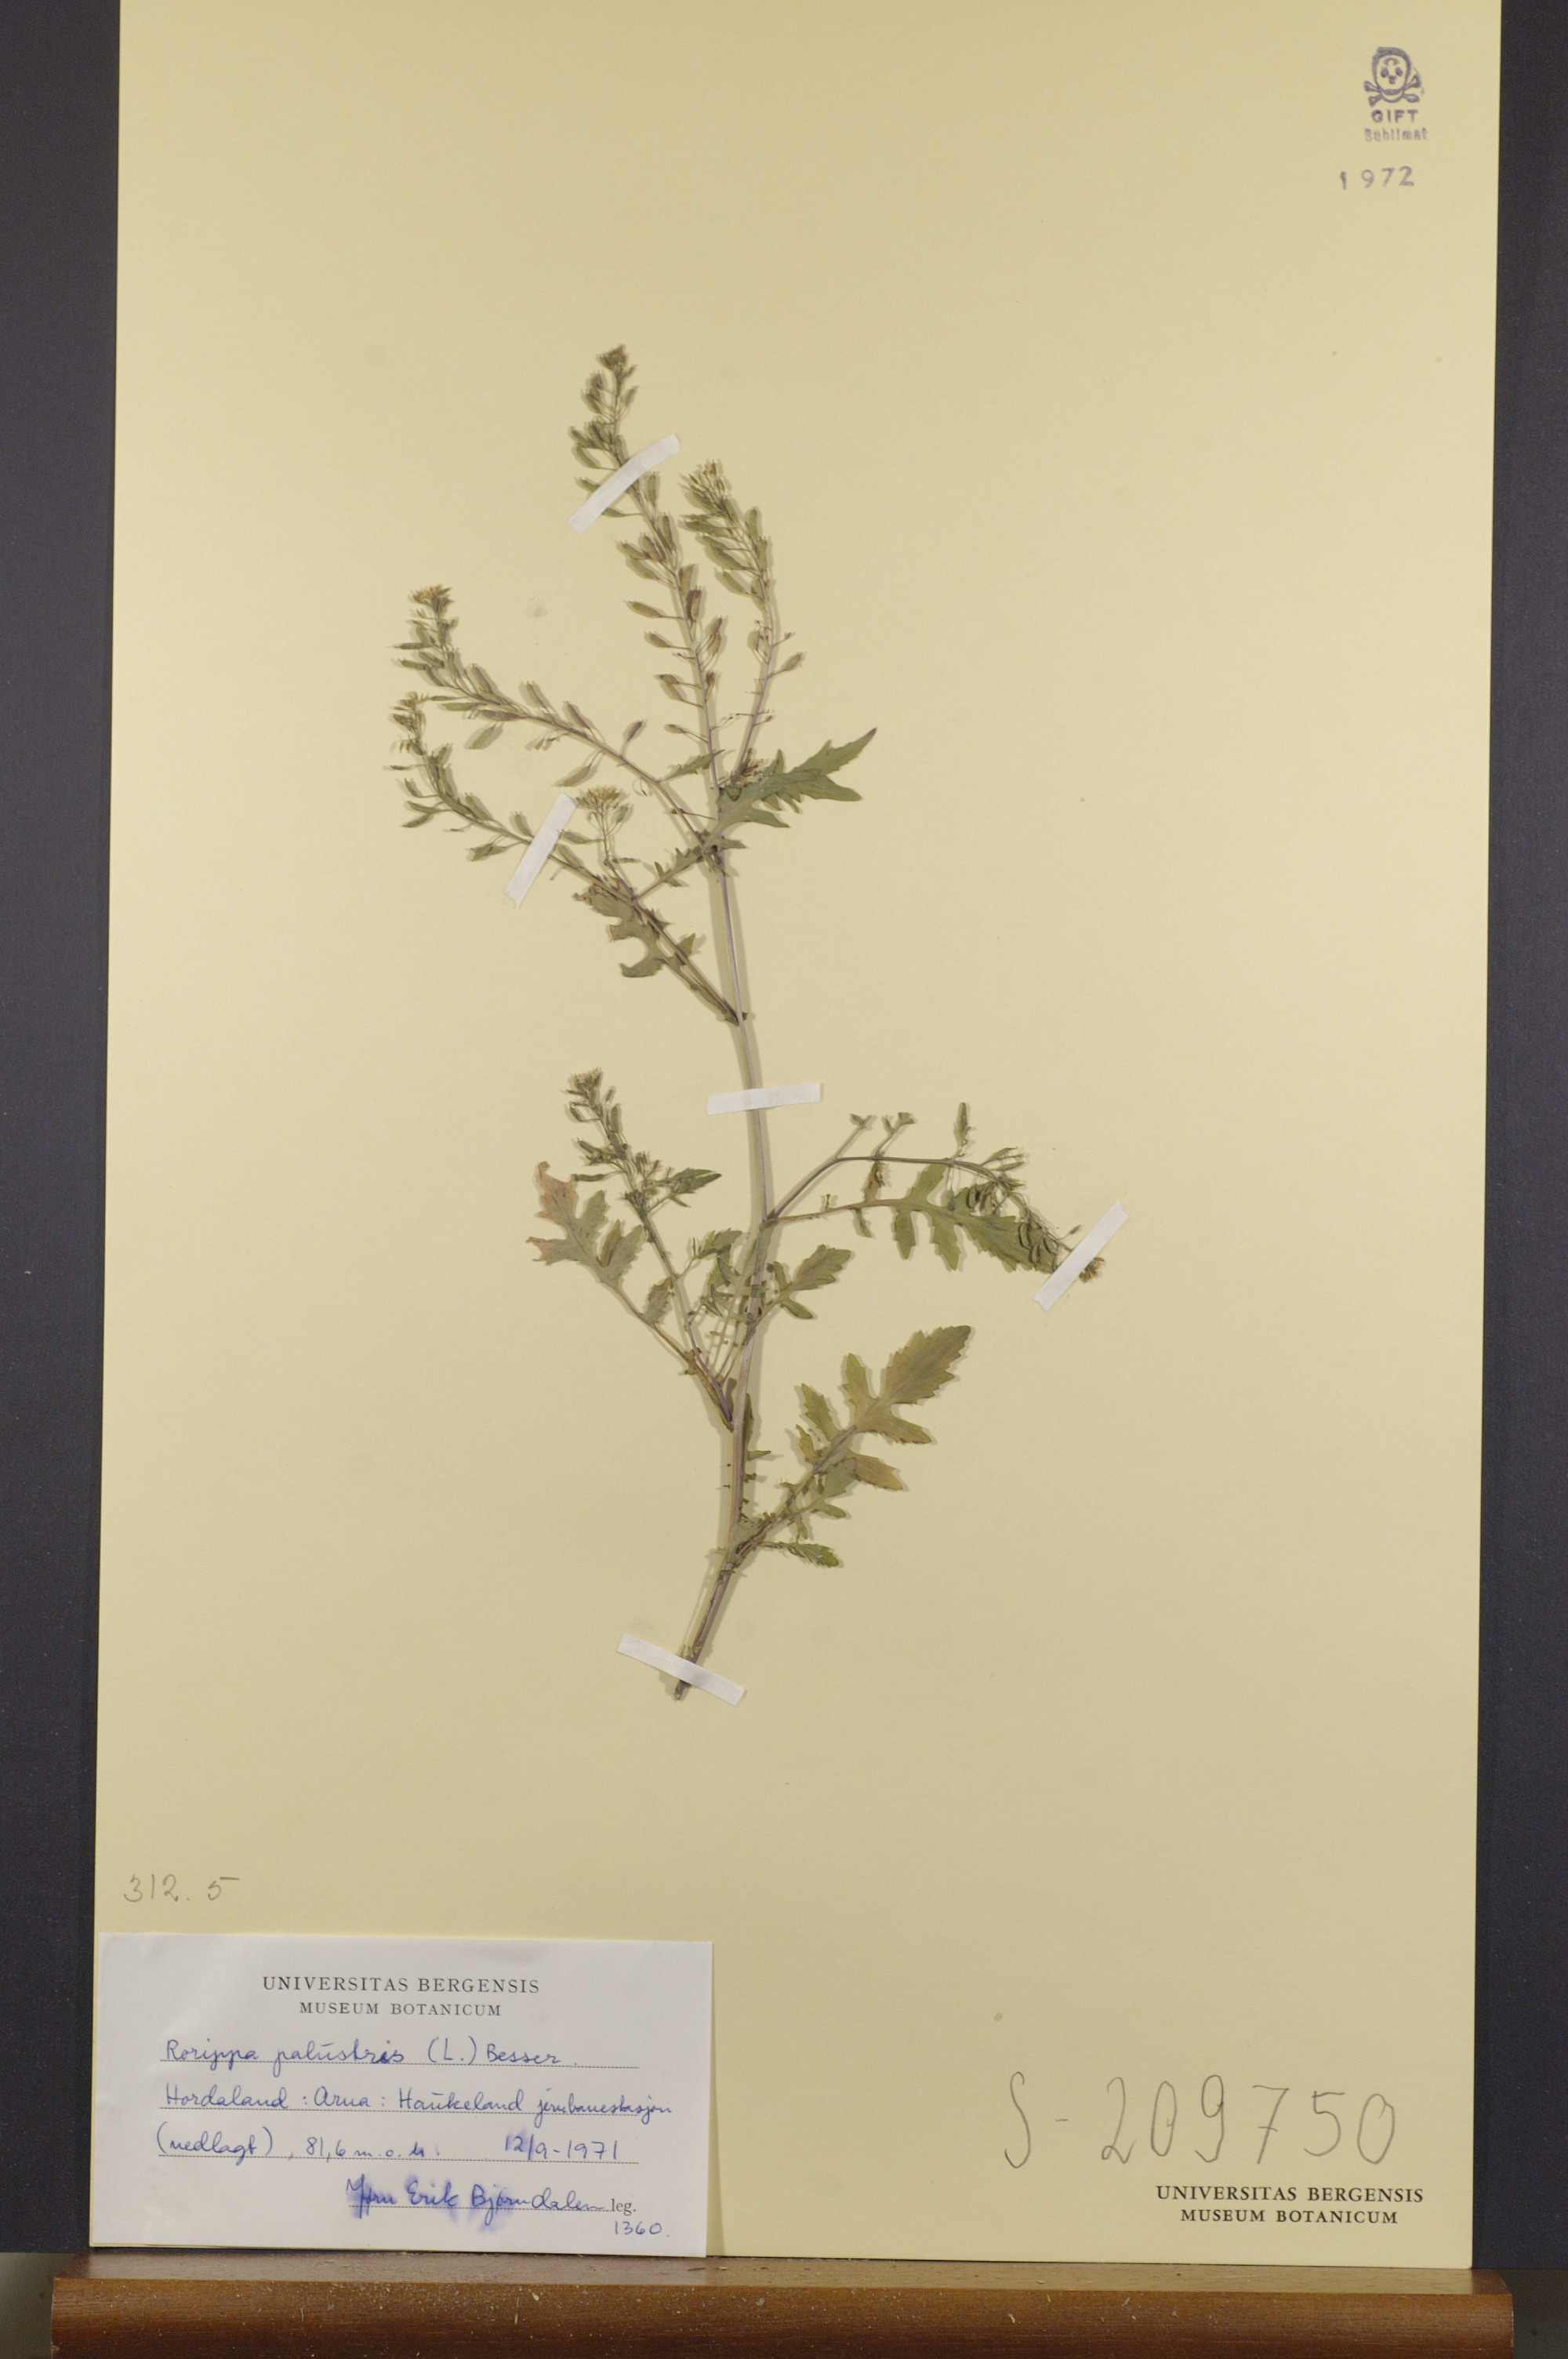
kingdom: Plantae
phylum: Tracheophyta
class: Magnoliopsida
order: Brassicales
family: Brassicaceae
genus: Rorippa
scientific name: Rorippa palustris
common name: Marsh yellow-cress
